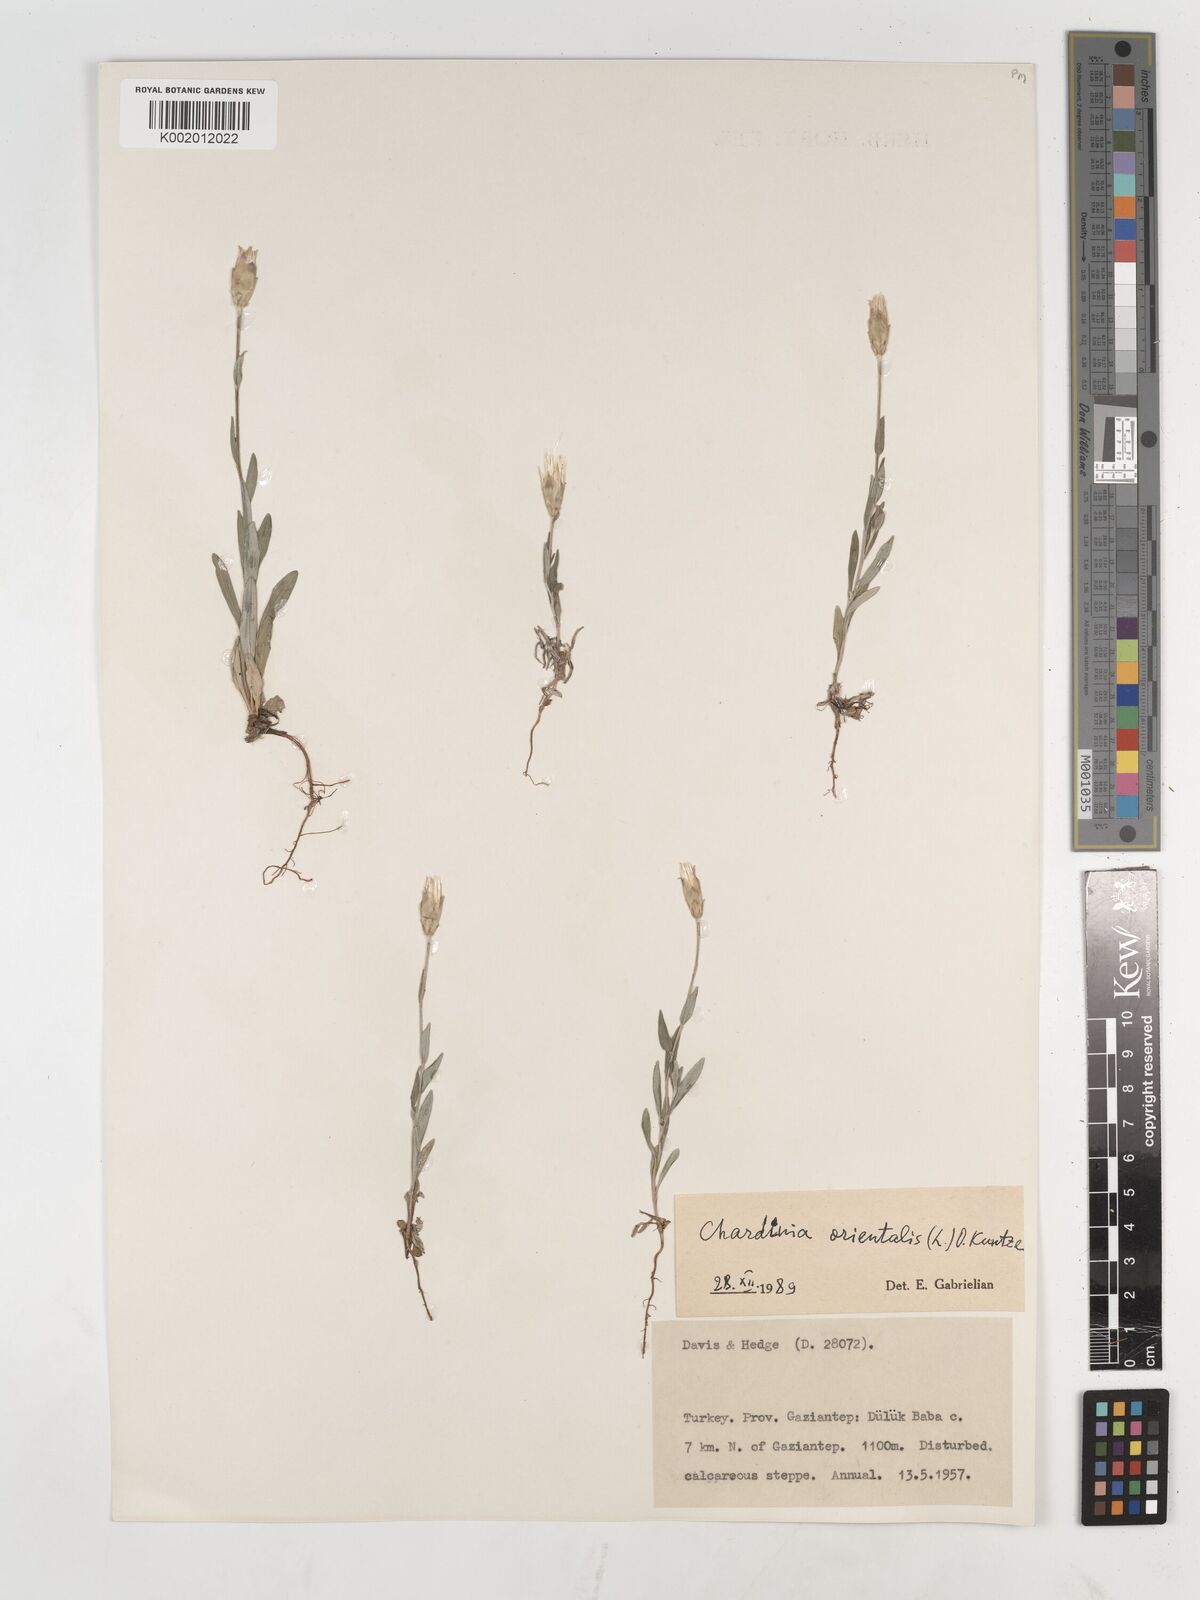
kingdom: Plantae
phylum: Tracheophyta
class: Magnoliopsida
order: Asterales
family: Asteraceae
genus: Chardinia
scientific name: Chardinia orientalis
